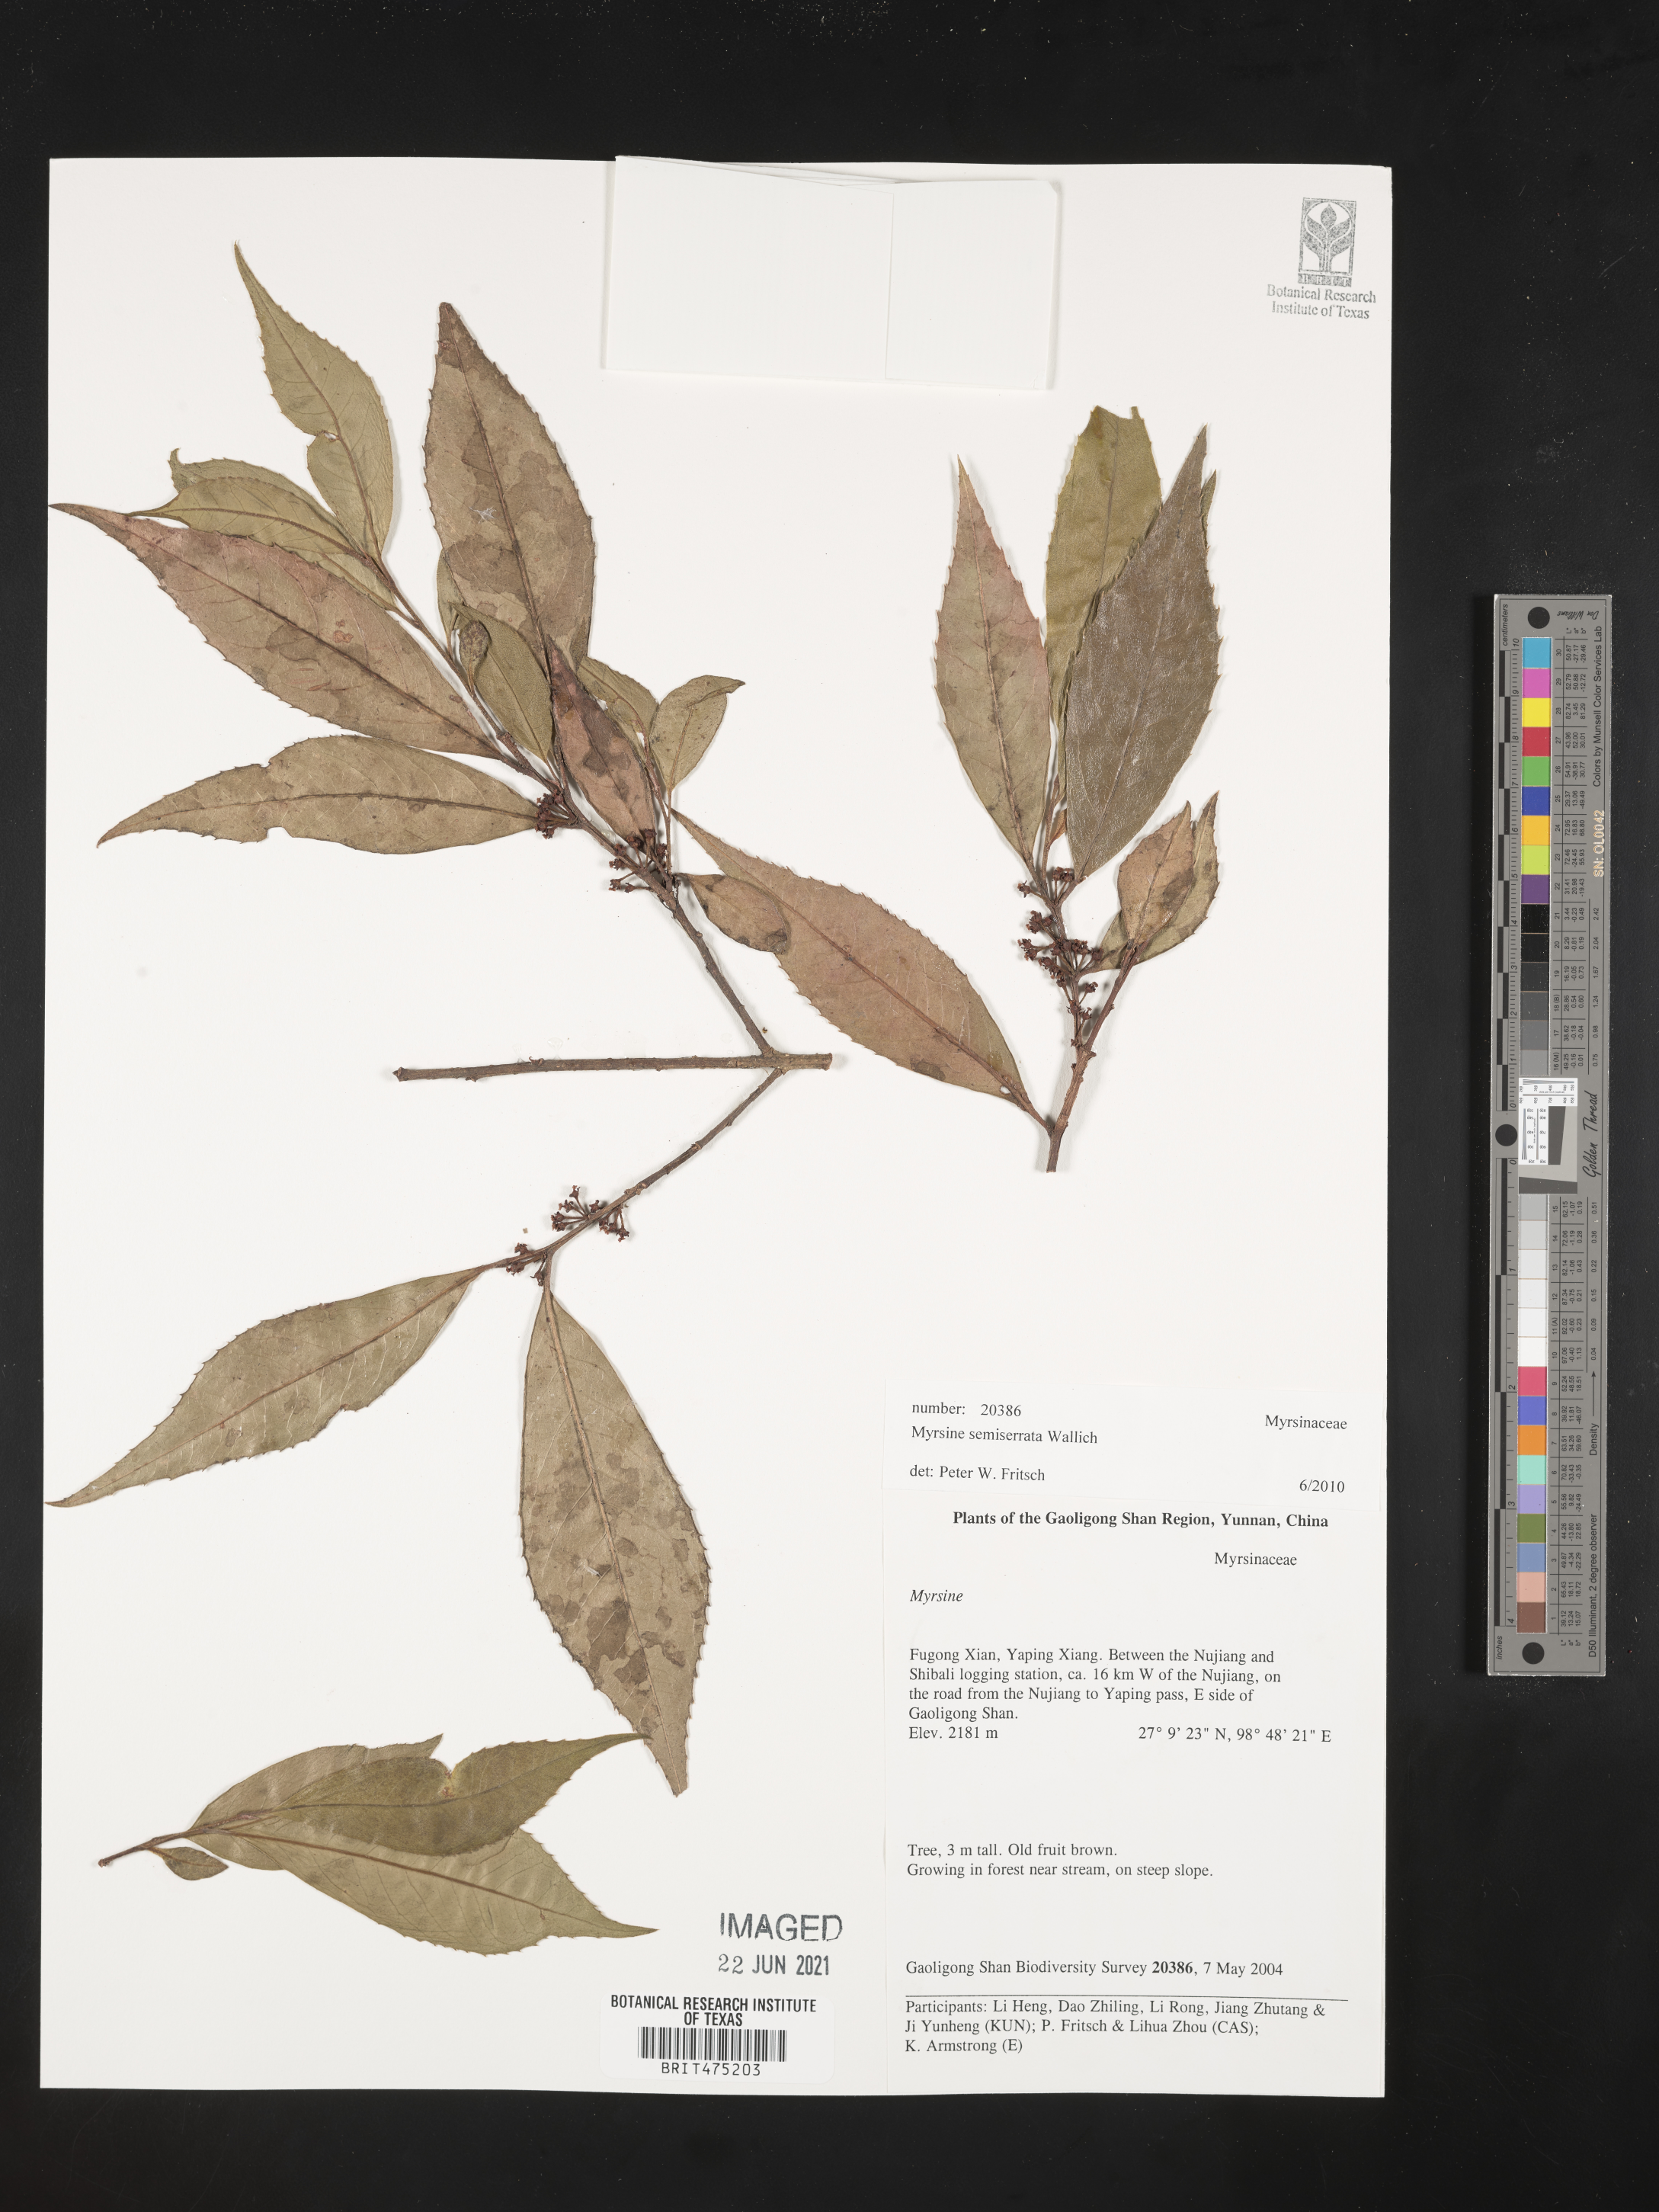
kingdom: Plantae
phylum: Tracheophyta
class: Magnoliopsida
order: Ericales
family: Primulaceae
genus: Myrsine
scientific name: Myrsine semiserrata
